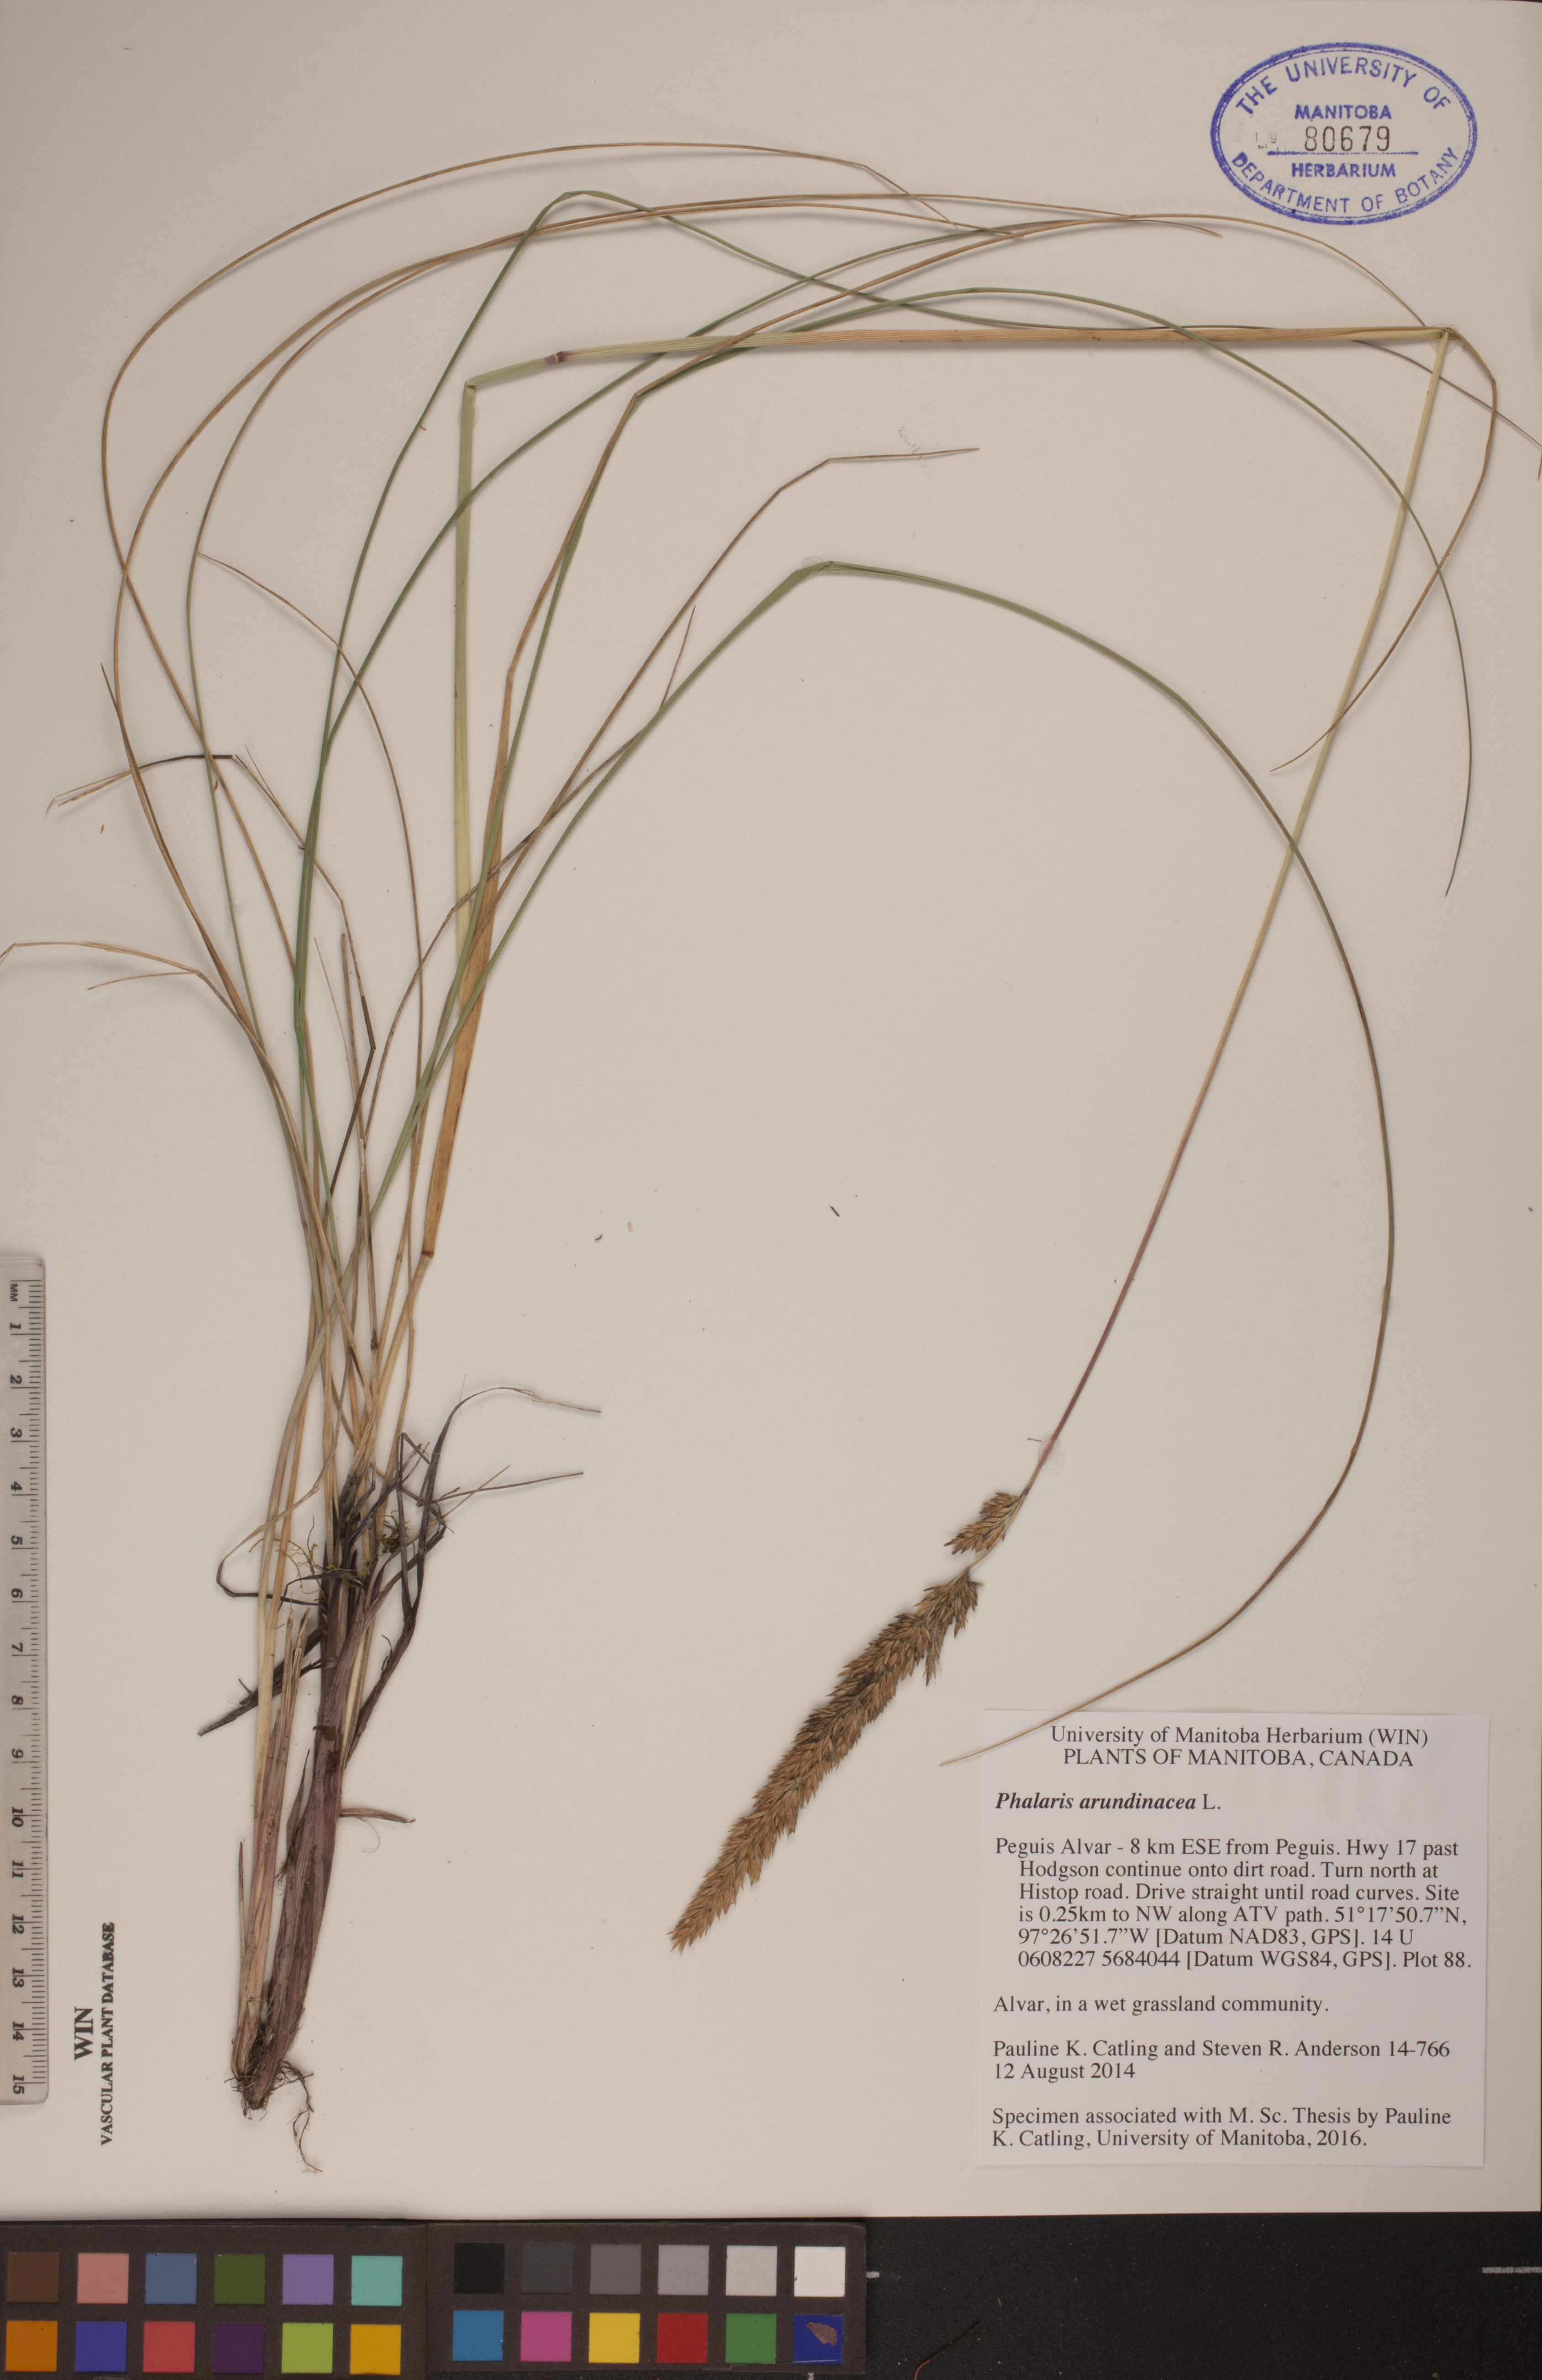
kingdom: Plantae
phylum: Tracheophyta
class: Liliopsida
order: Poales
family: Poaceae
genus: Phalaris
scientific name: Phalaris arundinacea
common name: Reed canary-grass
